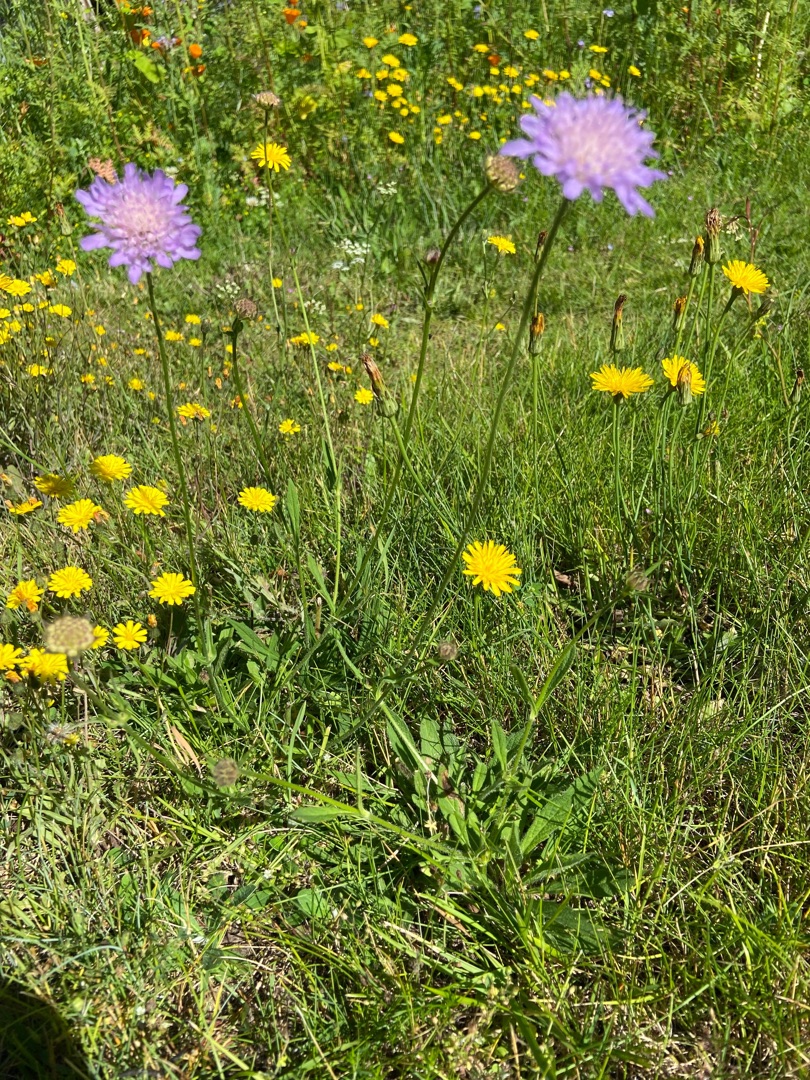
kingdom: Plantae
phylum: Tracheophyta
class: Magnoliopsida
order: Dipsacales
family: Caprifoliaceae
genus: Knautia
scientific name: Knautia arvensis
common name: Blåhat
